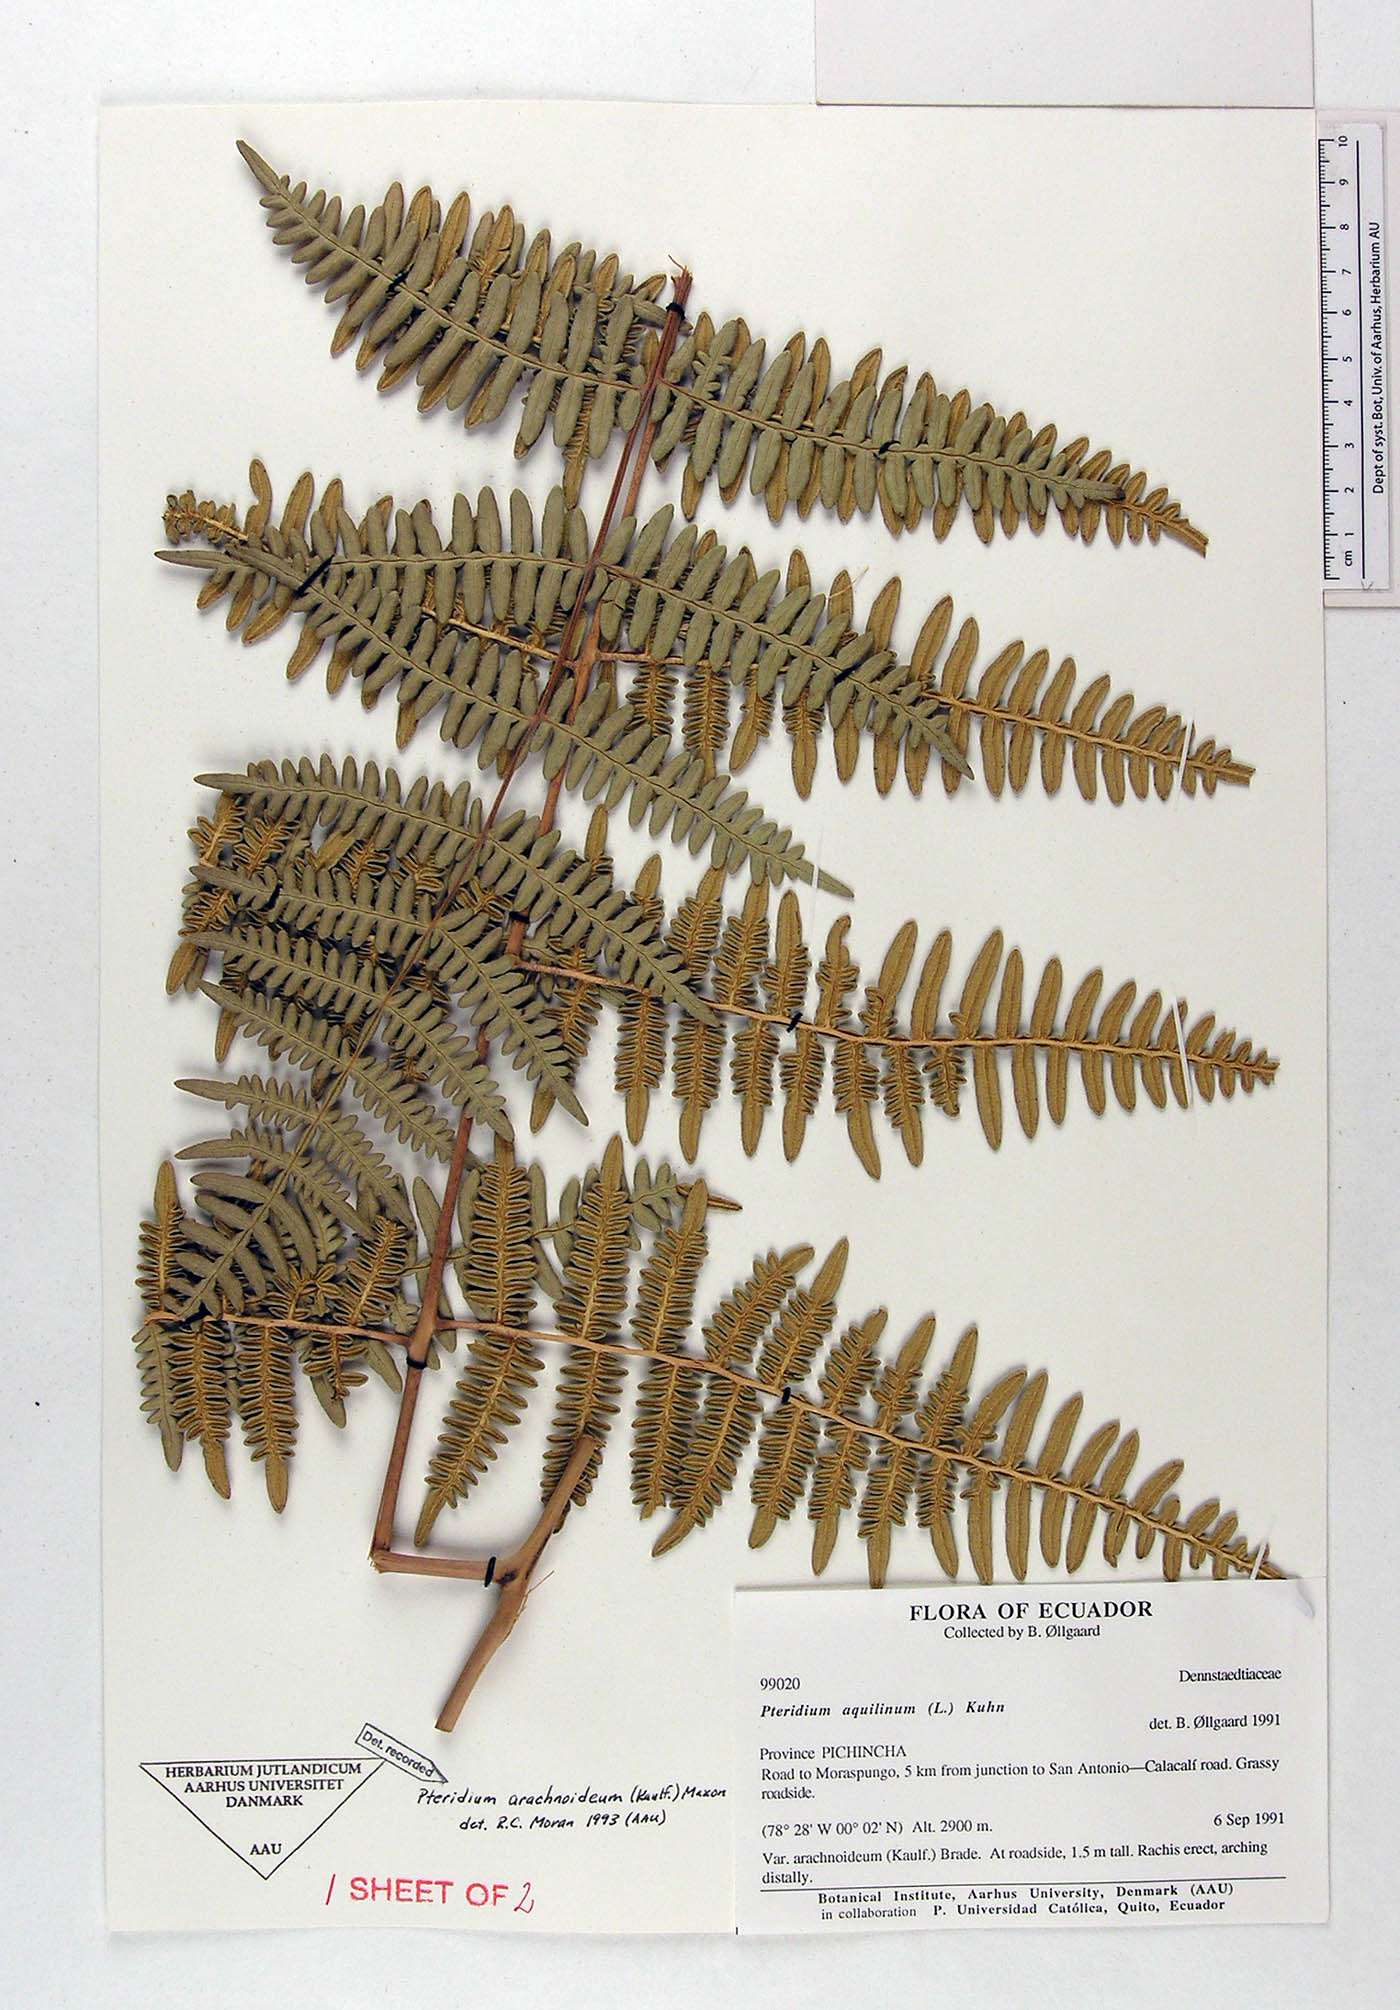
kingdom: Plantae
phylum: Tracheophyta
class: Polypodiopsida
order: Polypodiales
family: Dennstaedtiaceae
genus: Pteridium
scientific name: Pteridium esculentum
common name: Bracken fern
